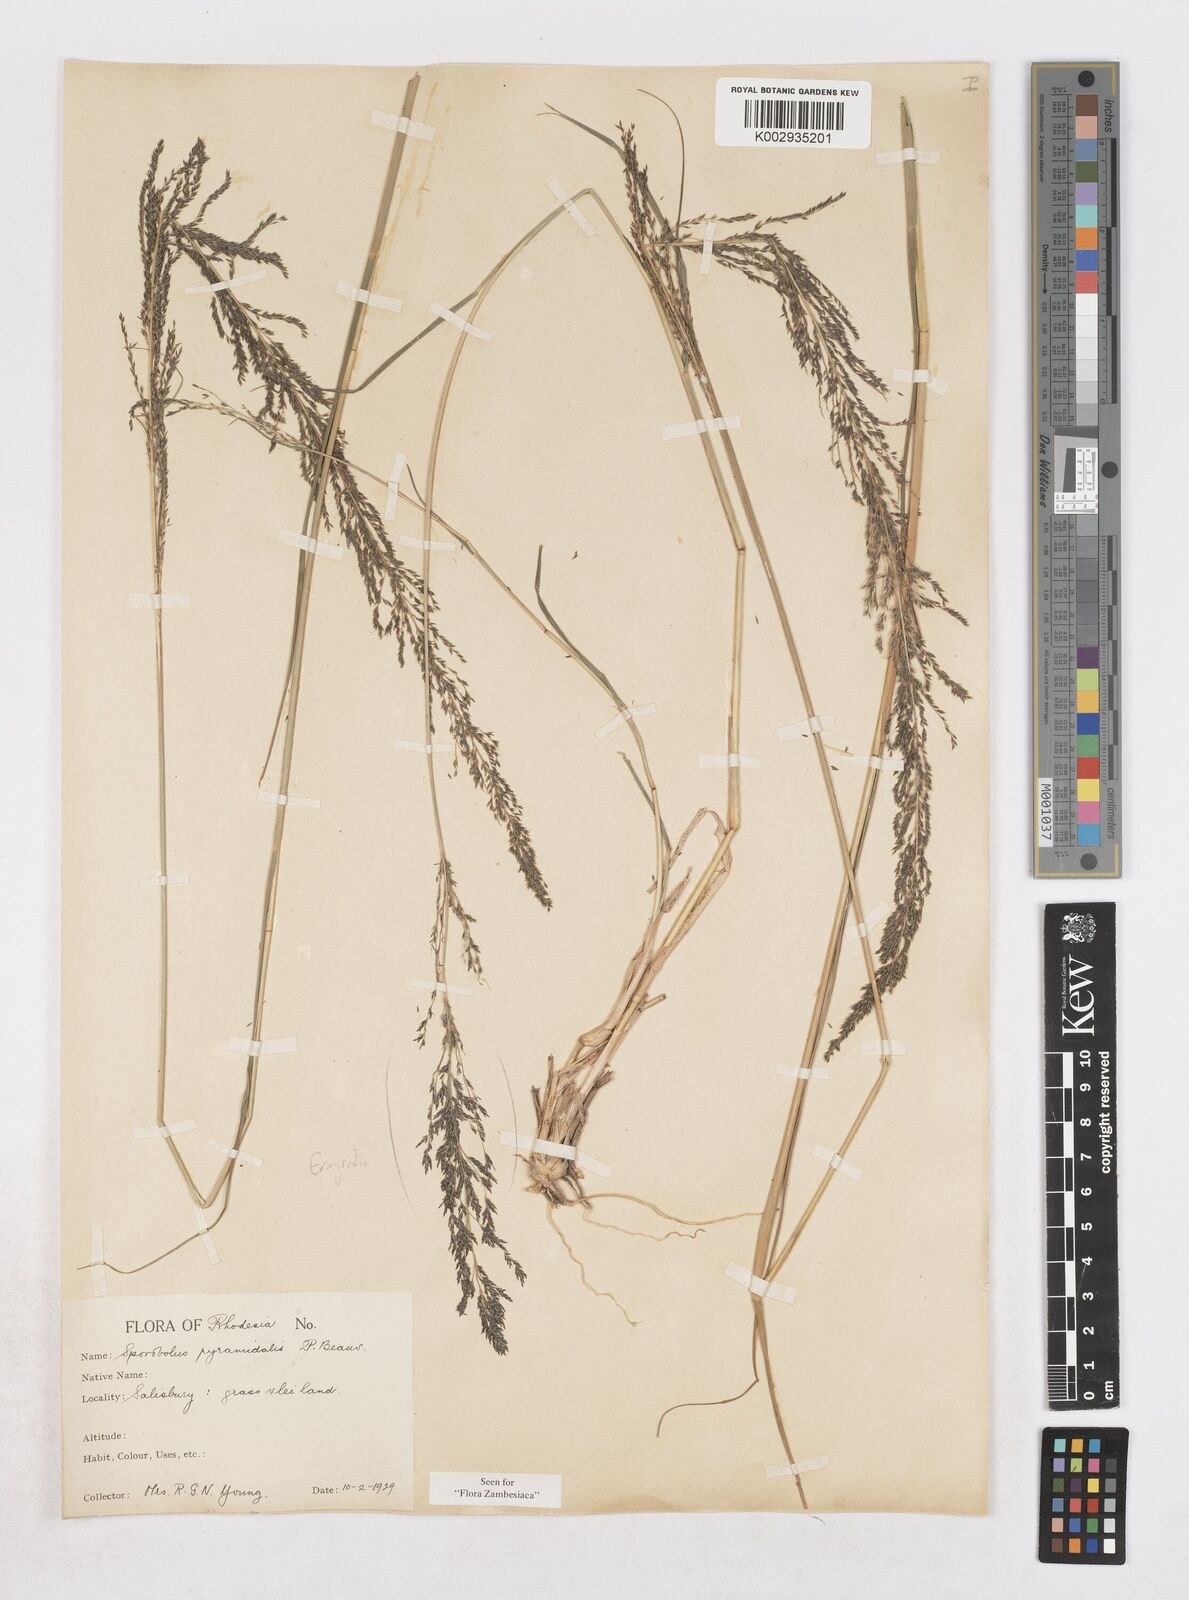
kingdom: Plantae
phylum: Tracheophyta
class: Liliopsida
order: Poales
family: Poaceae
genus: Sporobolus
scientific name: Sporobolus pyramidalis
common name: West indian dropseed
